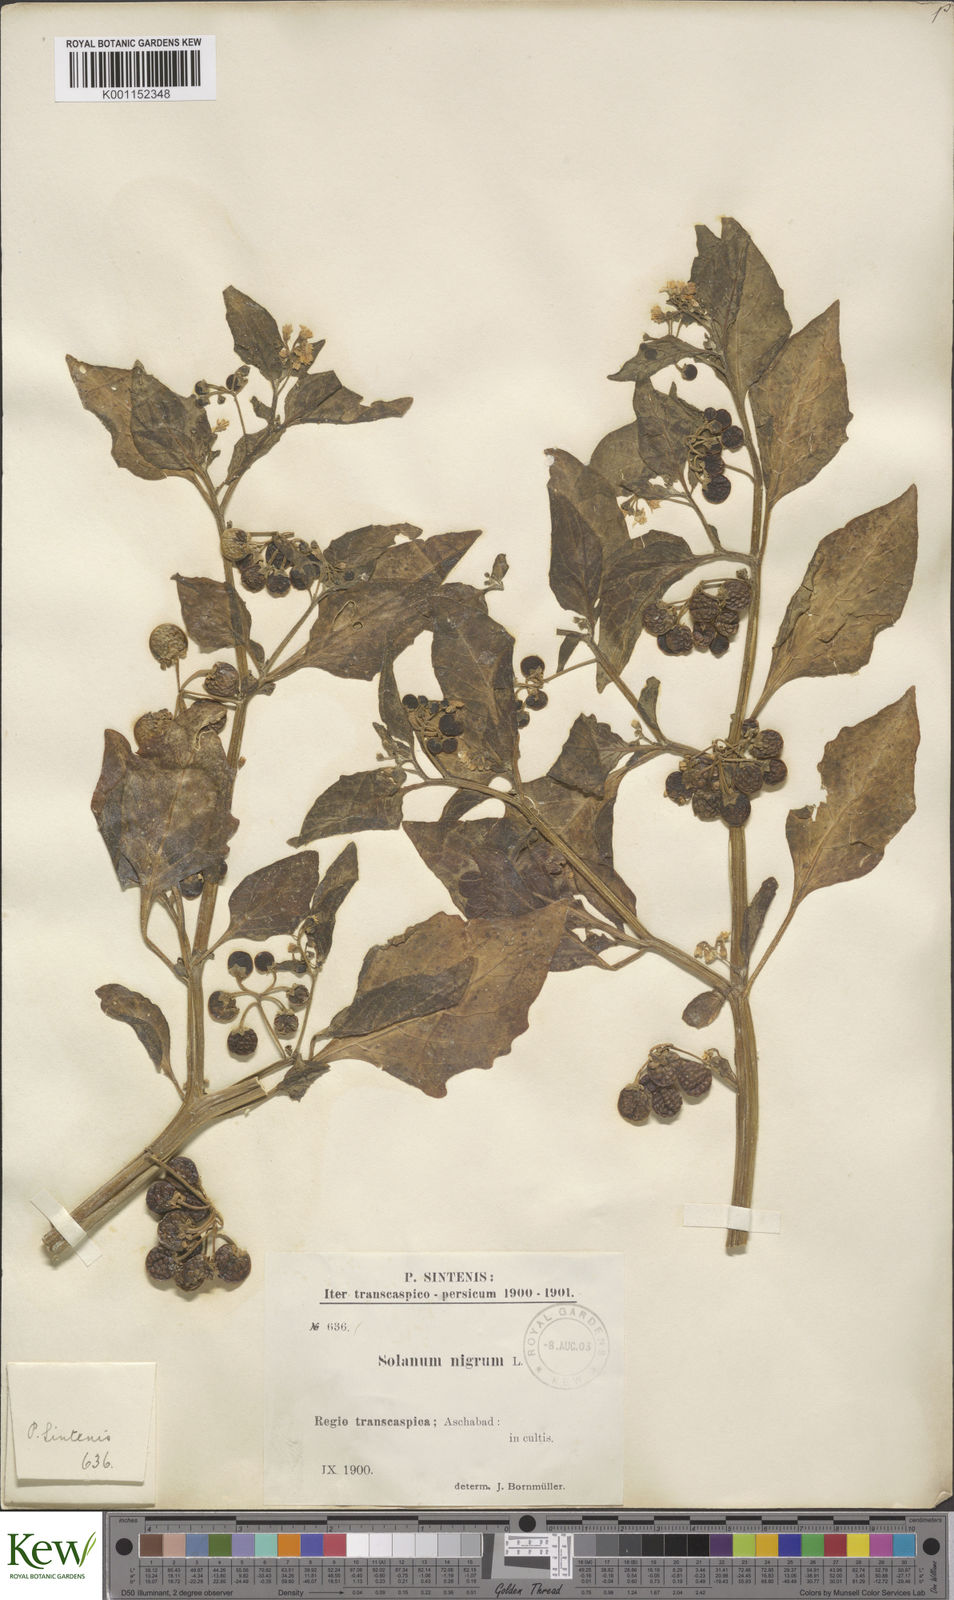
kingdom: Plantae
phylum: Tracheophyta
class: Magnoliopsida
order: Solanales
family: Solanaceae
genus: Solanum
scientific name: Solanum nigrum
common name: Black nightshade
